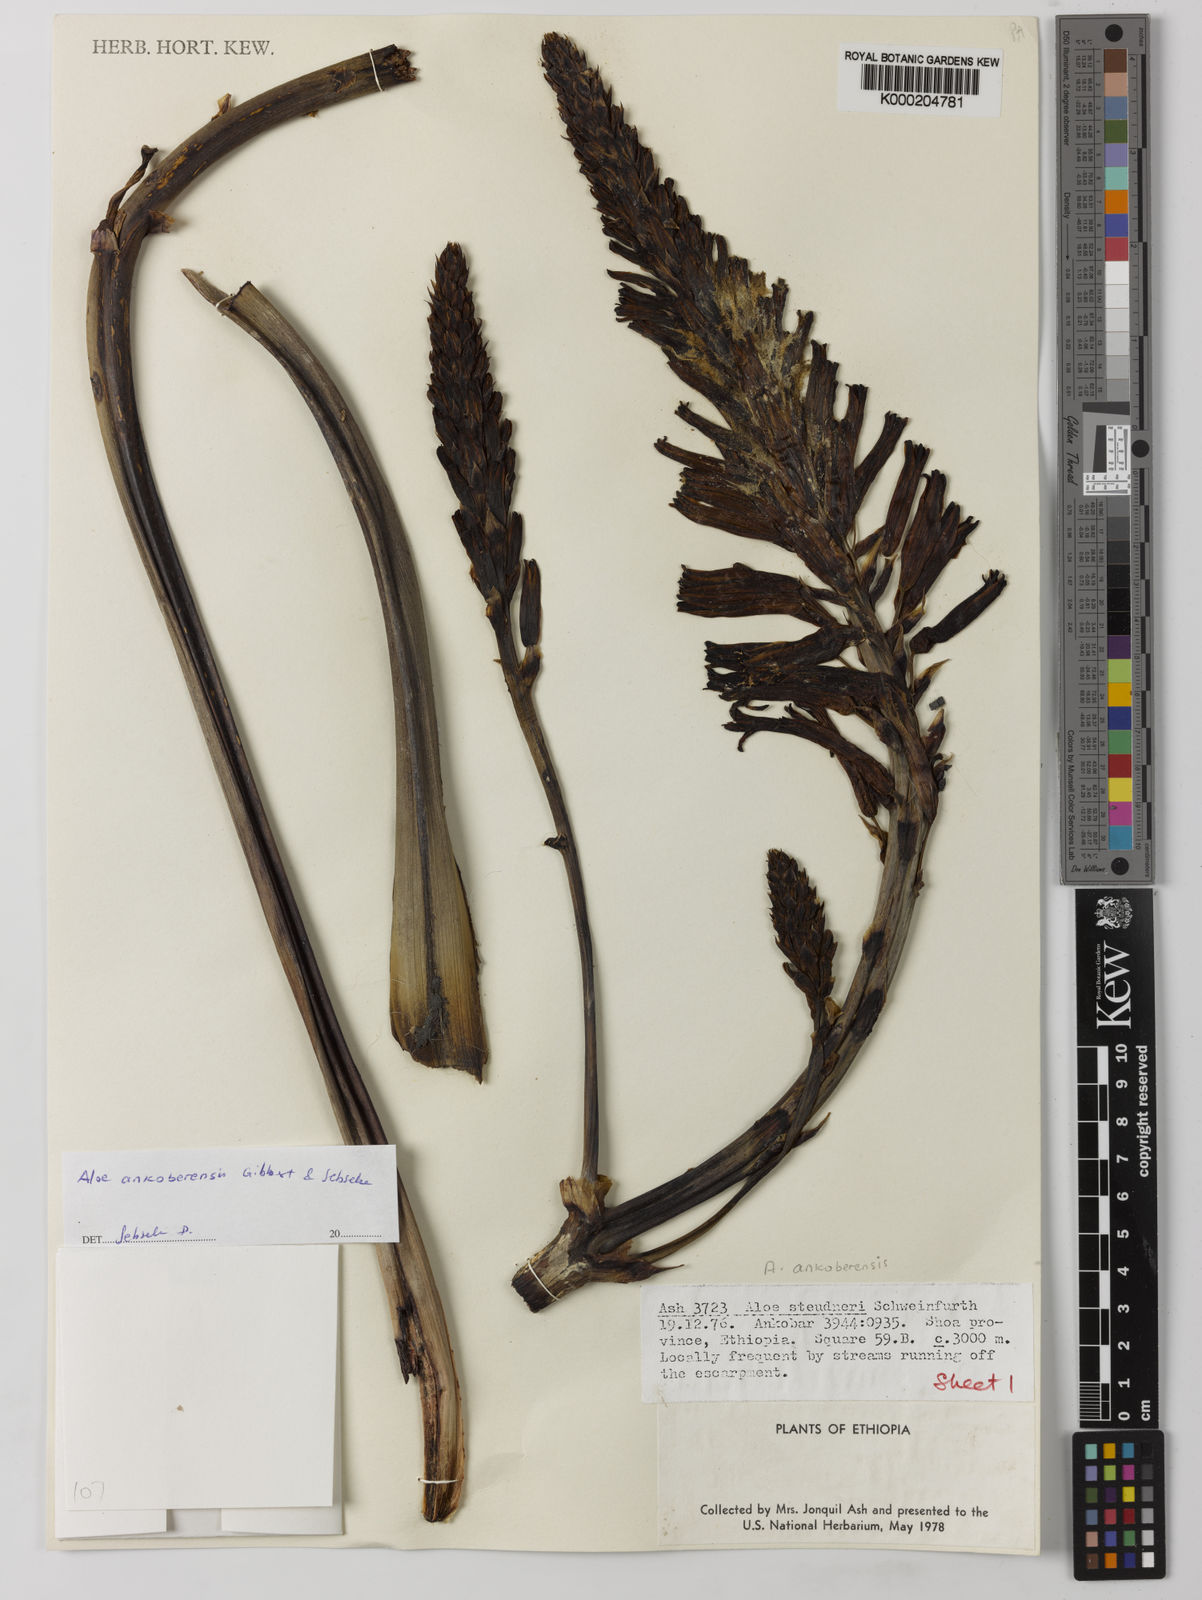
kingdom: Plantae
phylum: Tracheophyta
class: Liliopsida
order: Asparagales
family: Asphodelaceae
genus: Aloe
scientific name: Aloe ankoberensis
